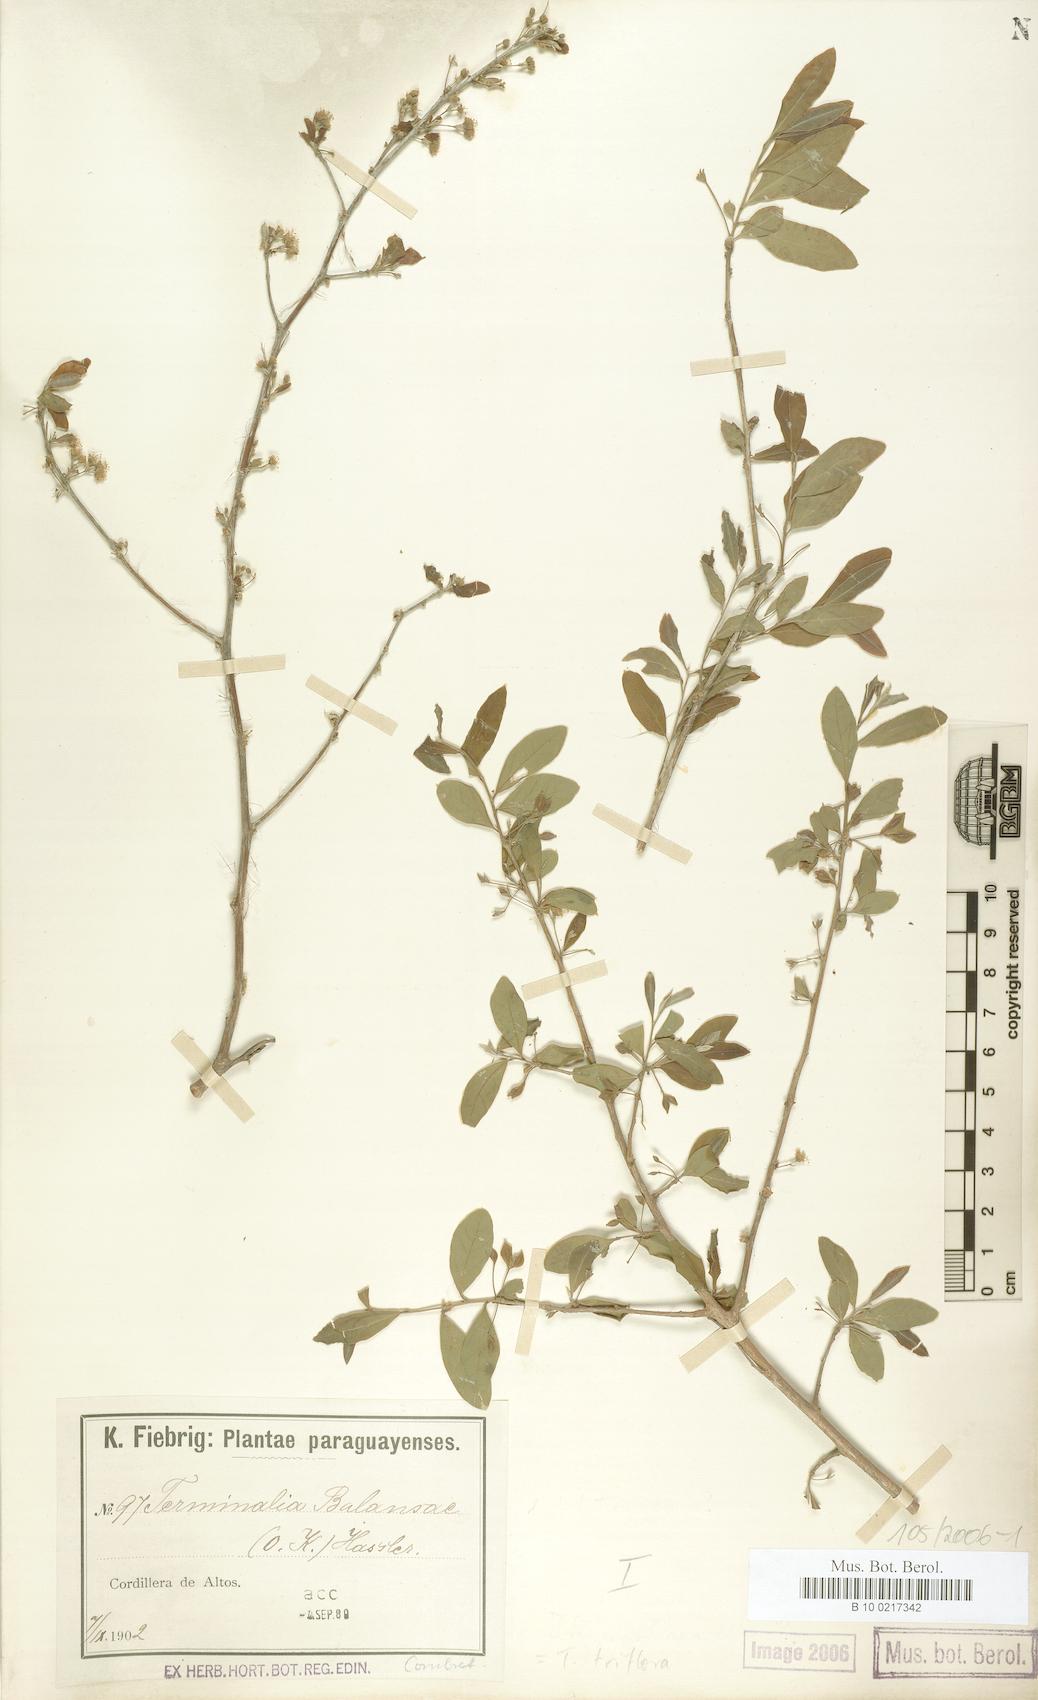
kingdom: Plantae
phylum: Tracheophyta
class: Magnoliopsida
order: Myrtales
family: Combretaceae
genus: Terminalia
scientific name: Terminalia triflora
